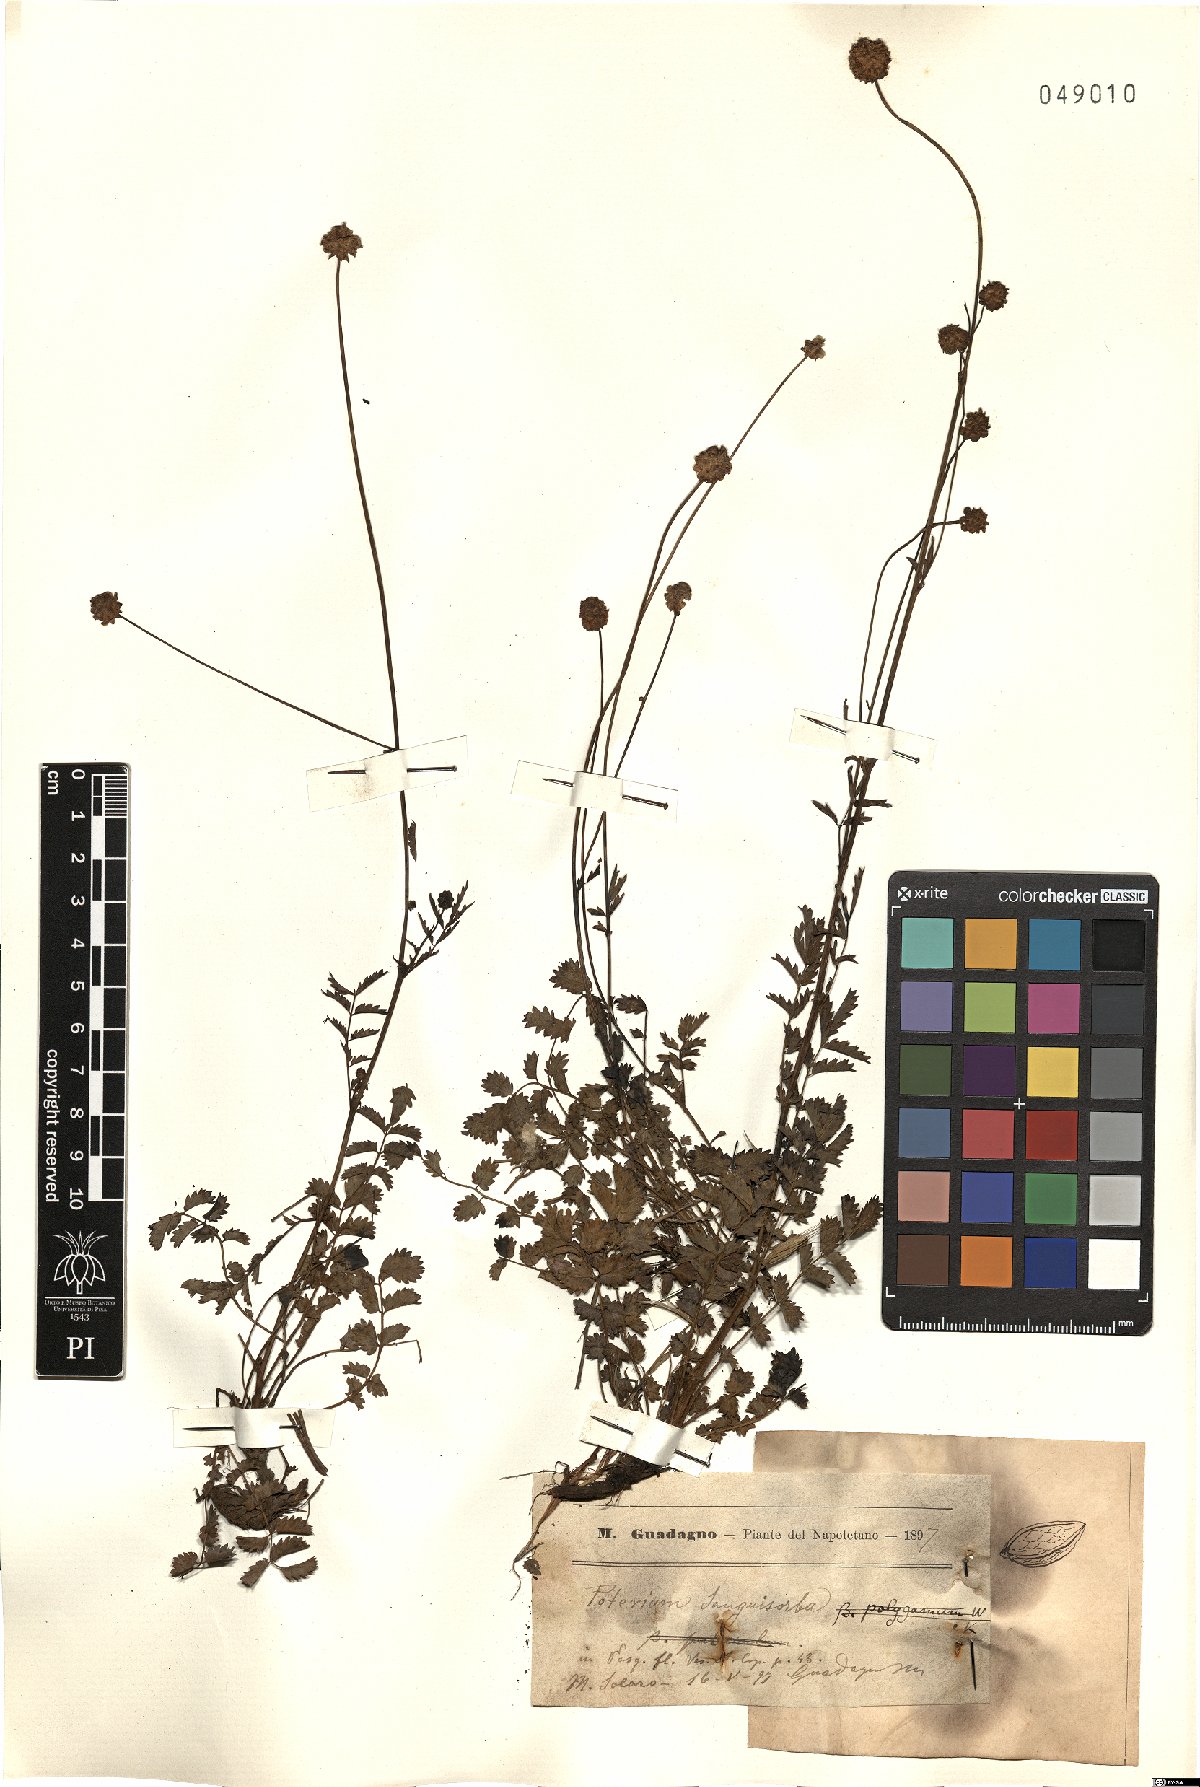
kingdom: Plantae
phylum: Tracheophyta
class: Magnoliopsida
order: Rosales
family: Rosaceae
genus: Poterium
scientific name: Poterium sanguisorba
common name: Salad burnet
